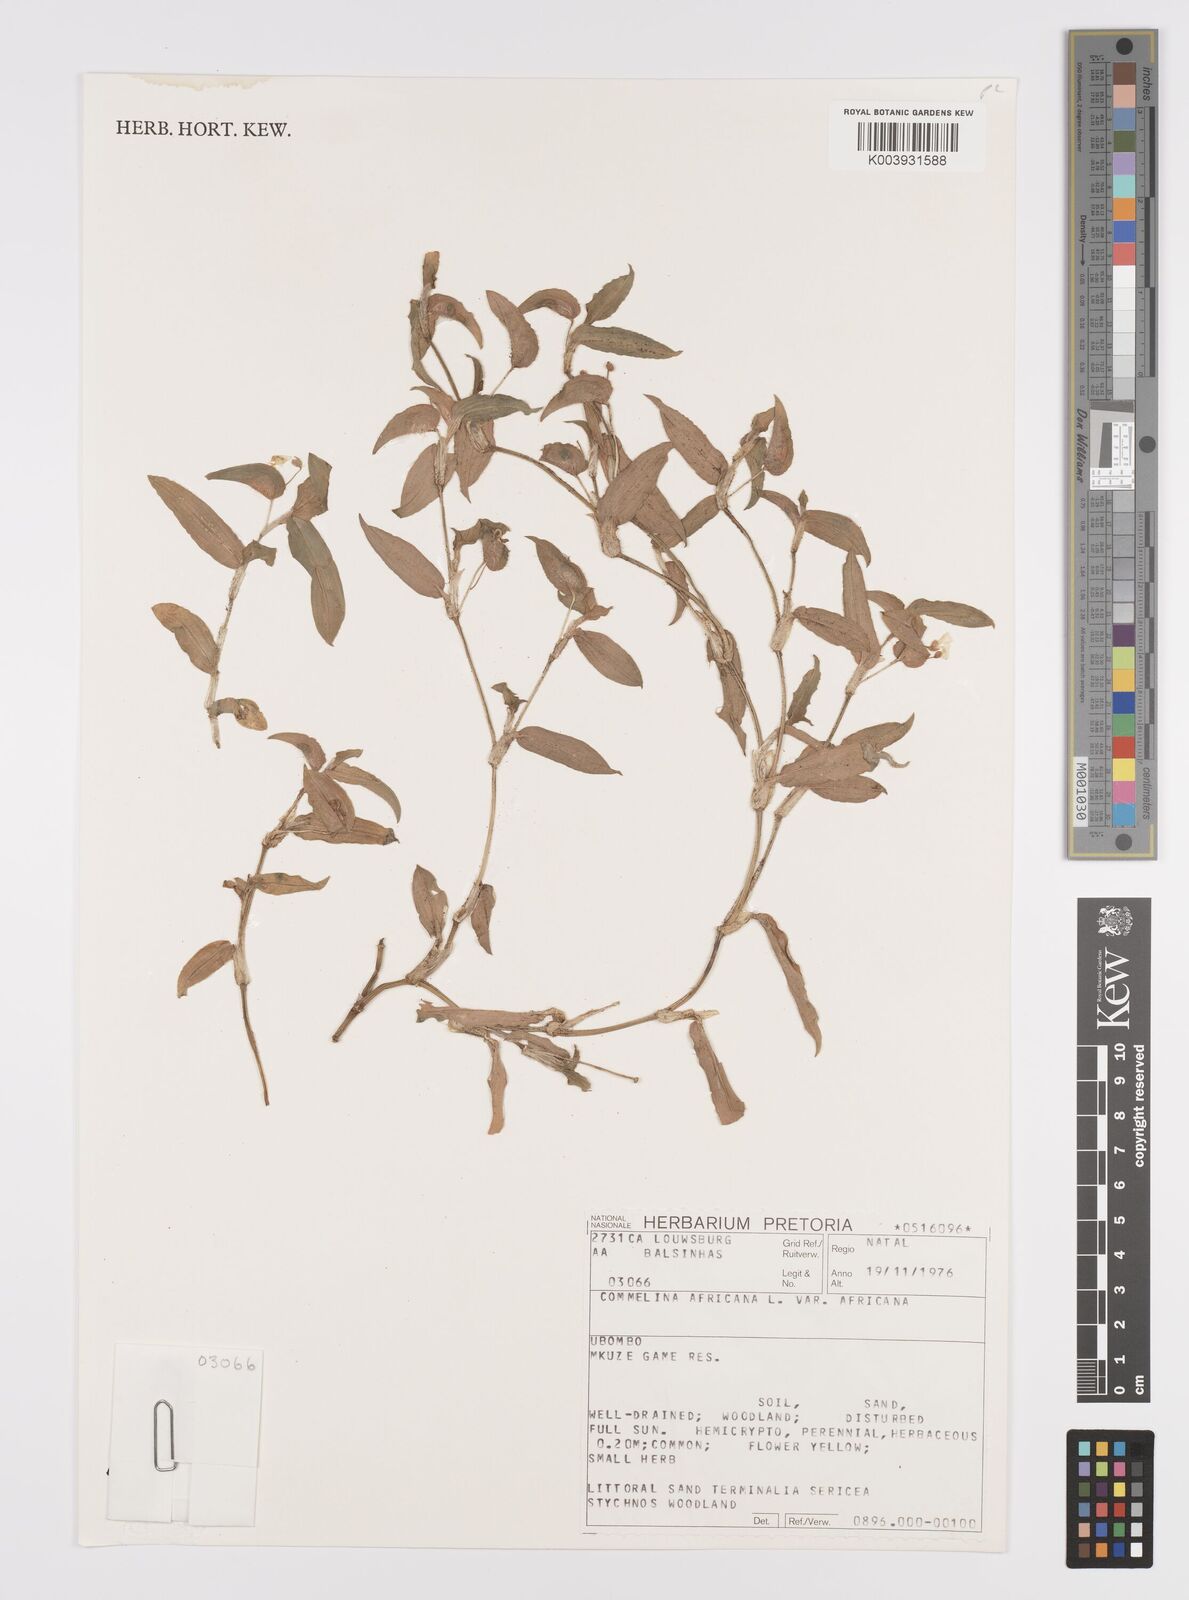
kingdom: Plantae
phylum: Tracheophyta
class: Liliopsida
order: Commelinales
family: Commelinaceae
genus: Commelina
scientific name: Commelina africana
